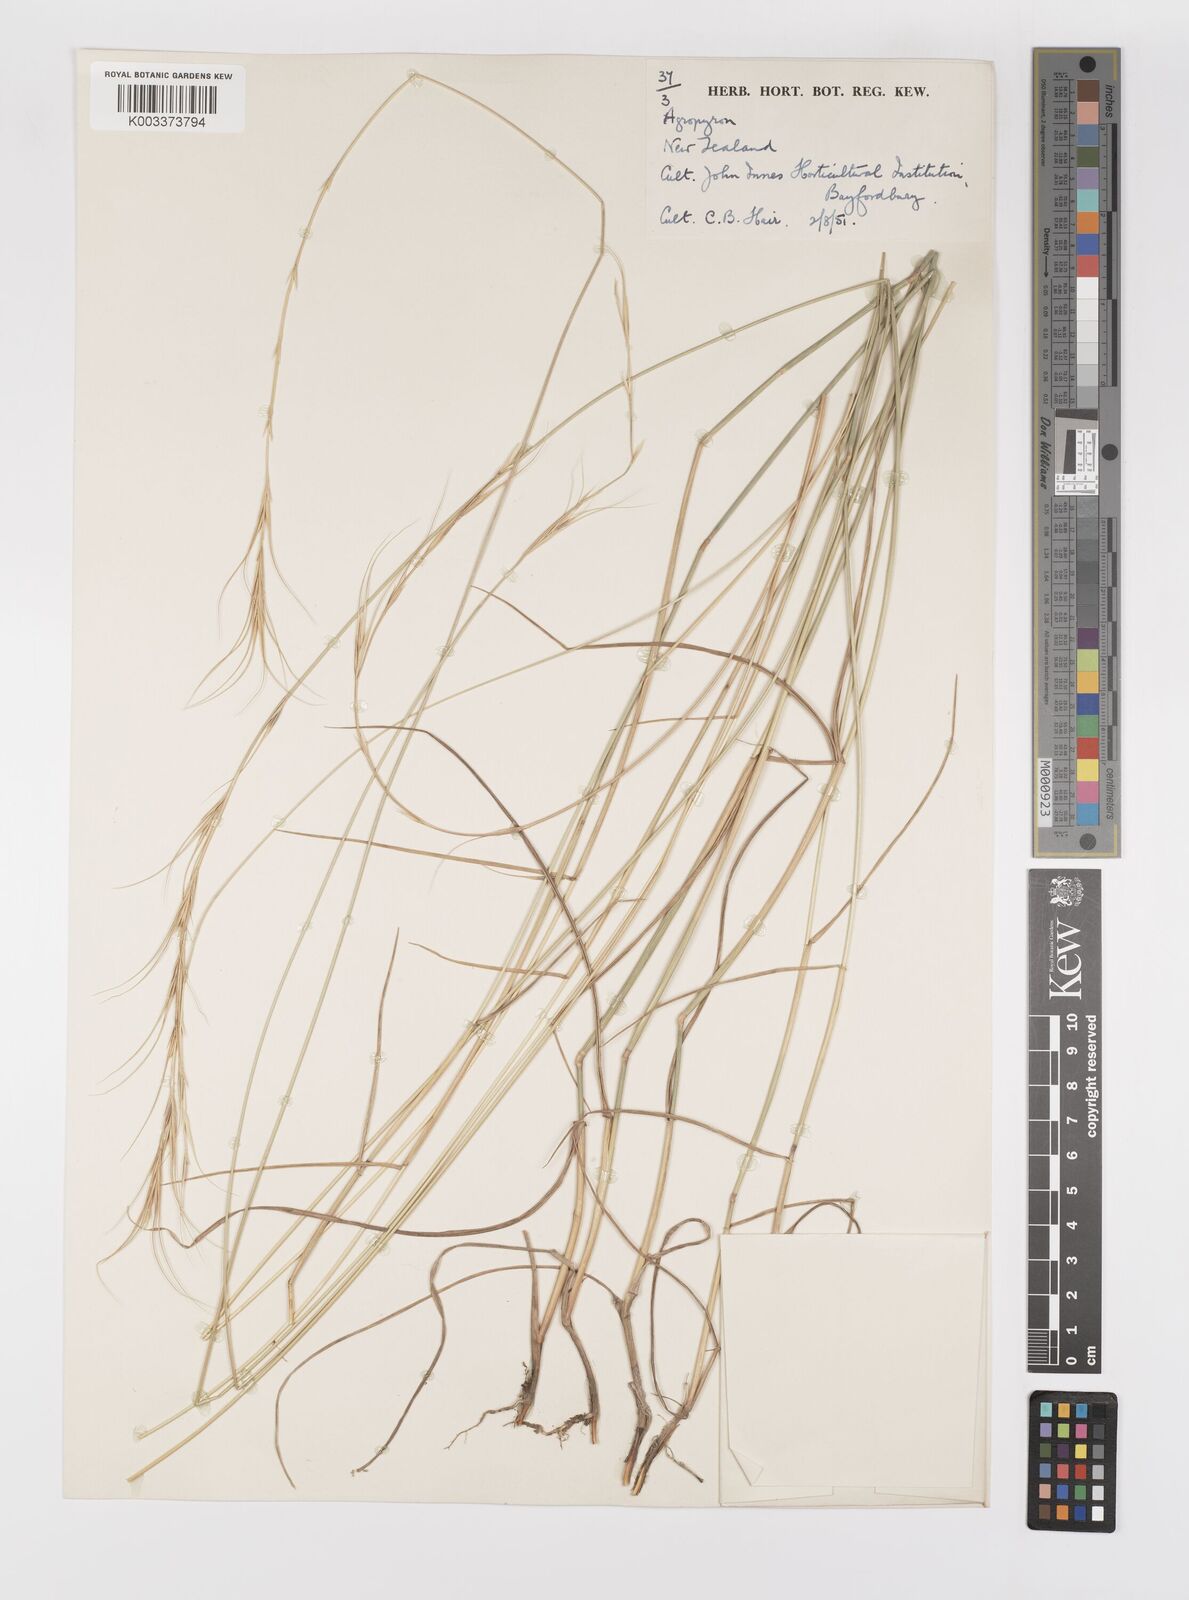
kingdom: Plantae
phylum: Tracheophyta
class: Liliopsida
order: Poales
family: Poaceae
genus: Elymus
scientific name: Elymus
